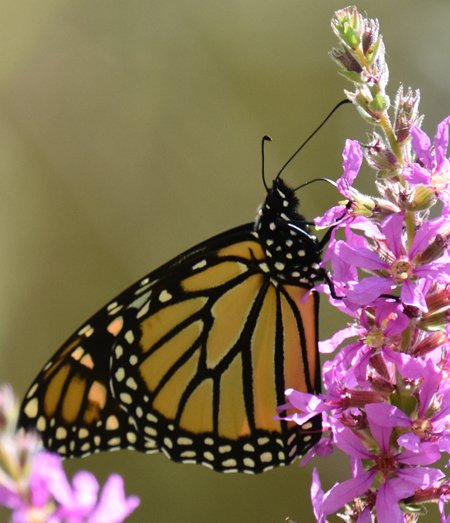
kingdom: Animalia
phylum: Arthropoda
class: Insecta
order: Lepidoptera
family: Nymphalidae
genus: Danaus
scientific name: Danaus plexippus
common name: Monarch
